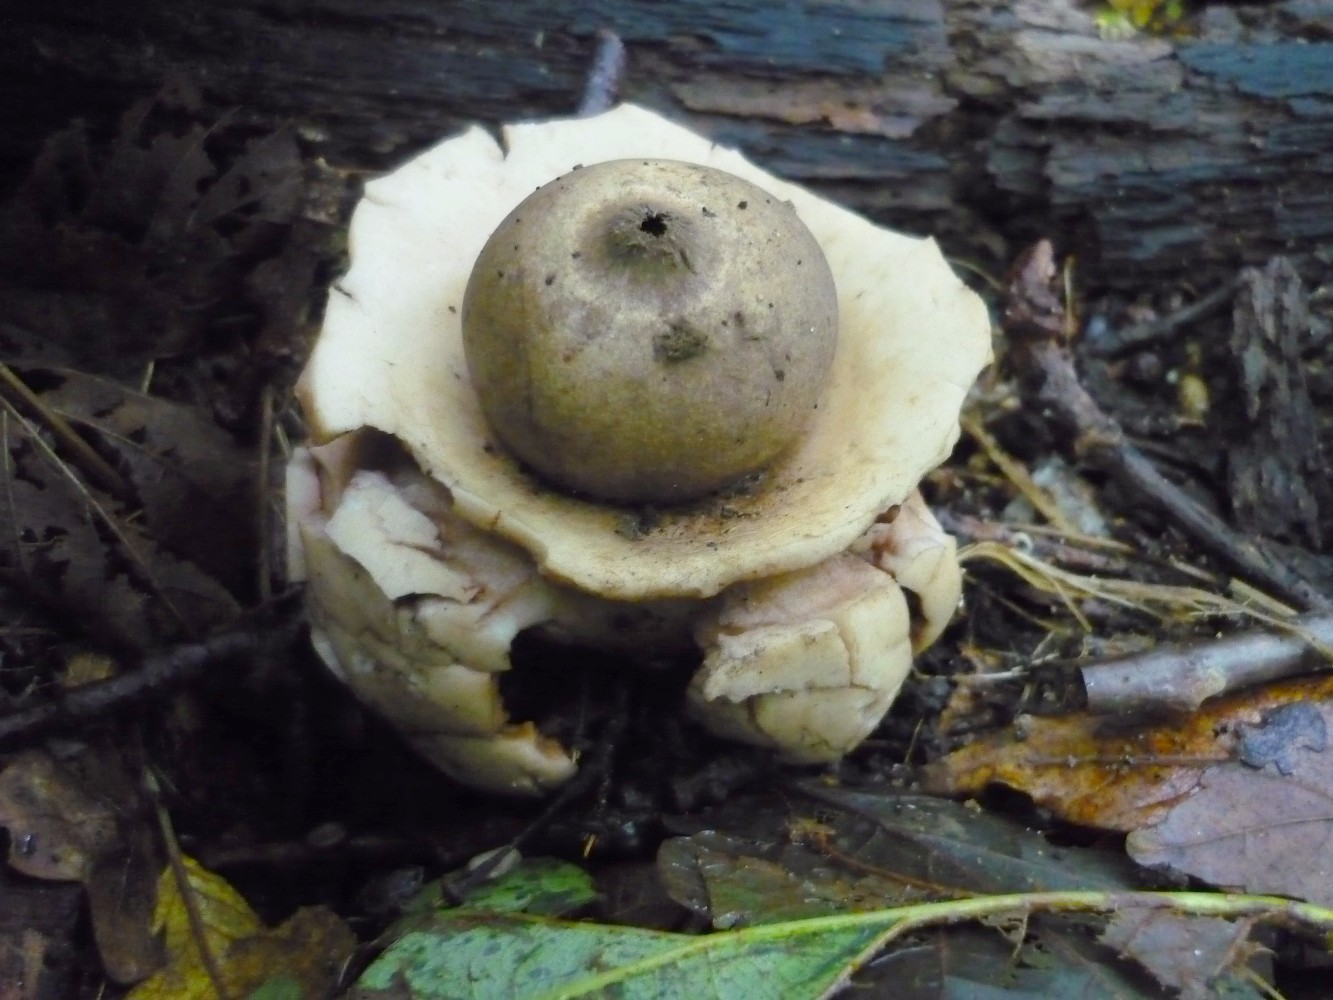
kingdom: Fungi
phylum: Basidiomycota
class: Agaricomycetes
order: Geastrales
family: Geastraceae
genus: Geastrum
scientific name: Geastrum michelianum
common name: kødet stjernebold
